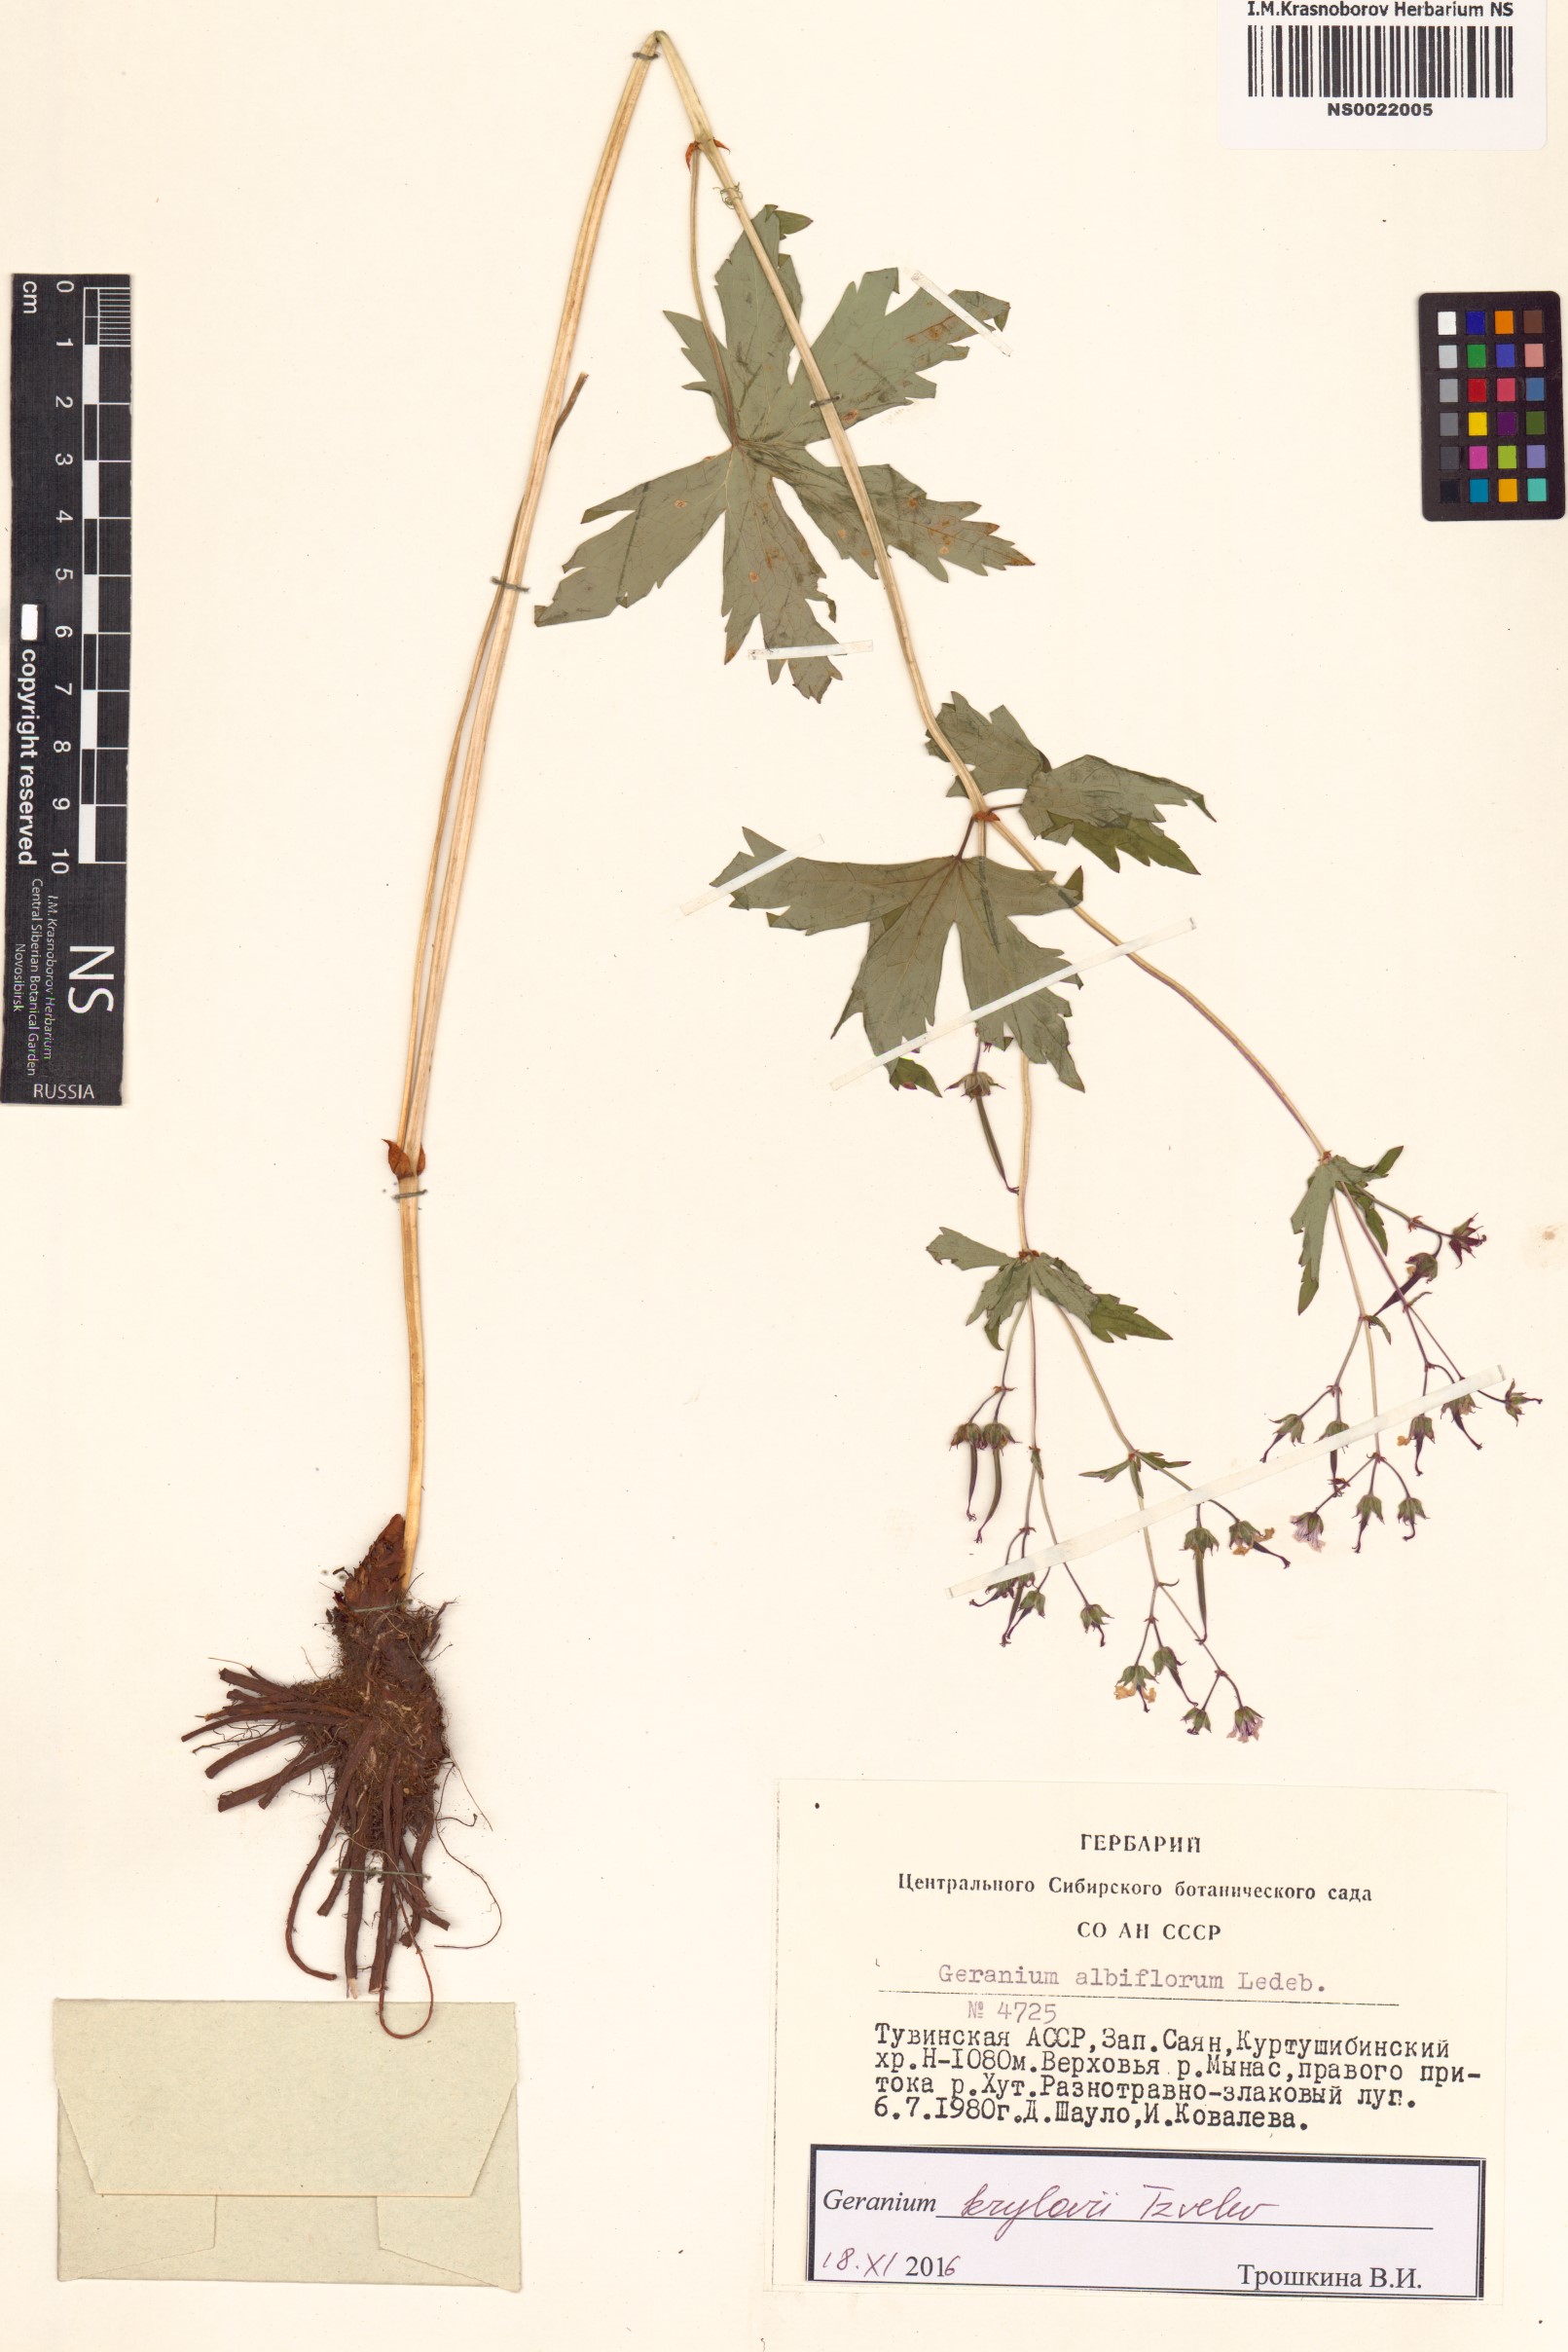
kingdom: Plantae
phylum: Tracheophyta
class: Magnoliopsida
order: Geraniales
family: Geraniaceae
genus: Geranium
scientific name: Geranium sylvaticum
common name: Wood crane's-bill
